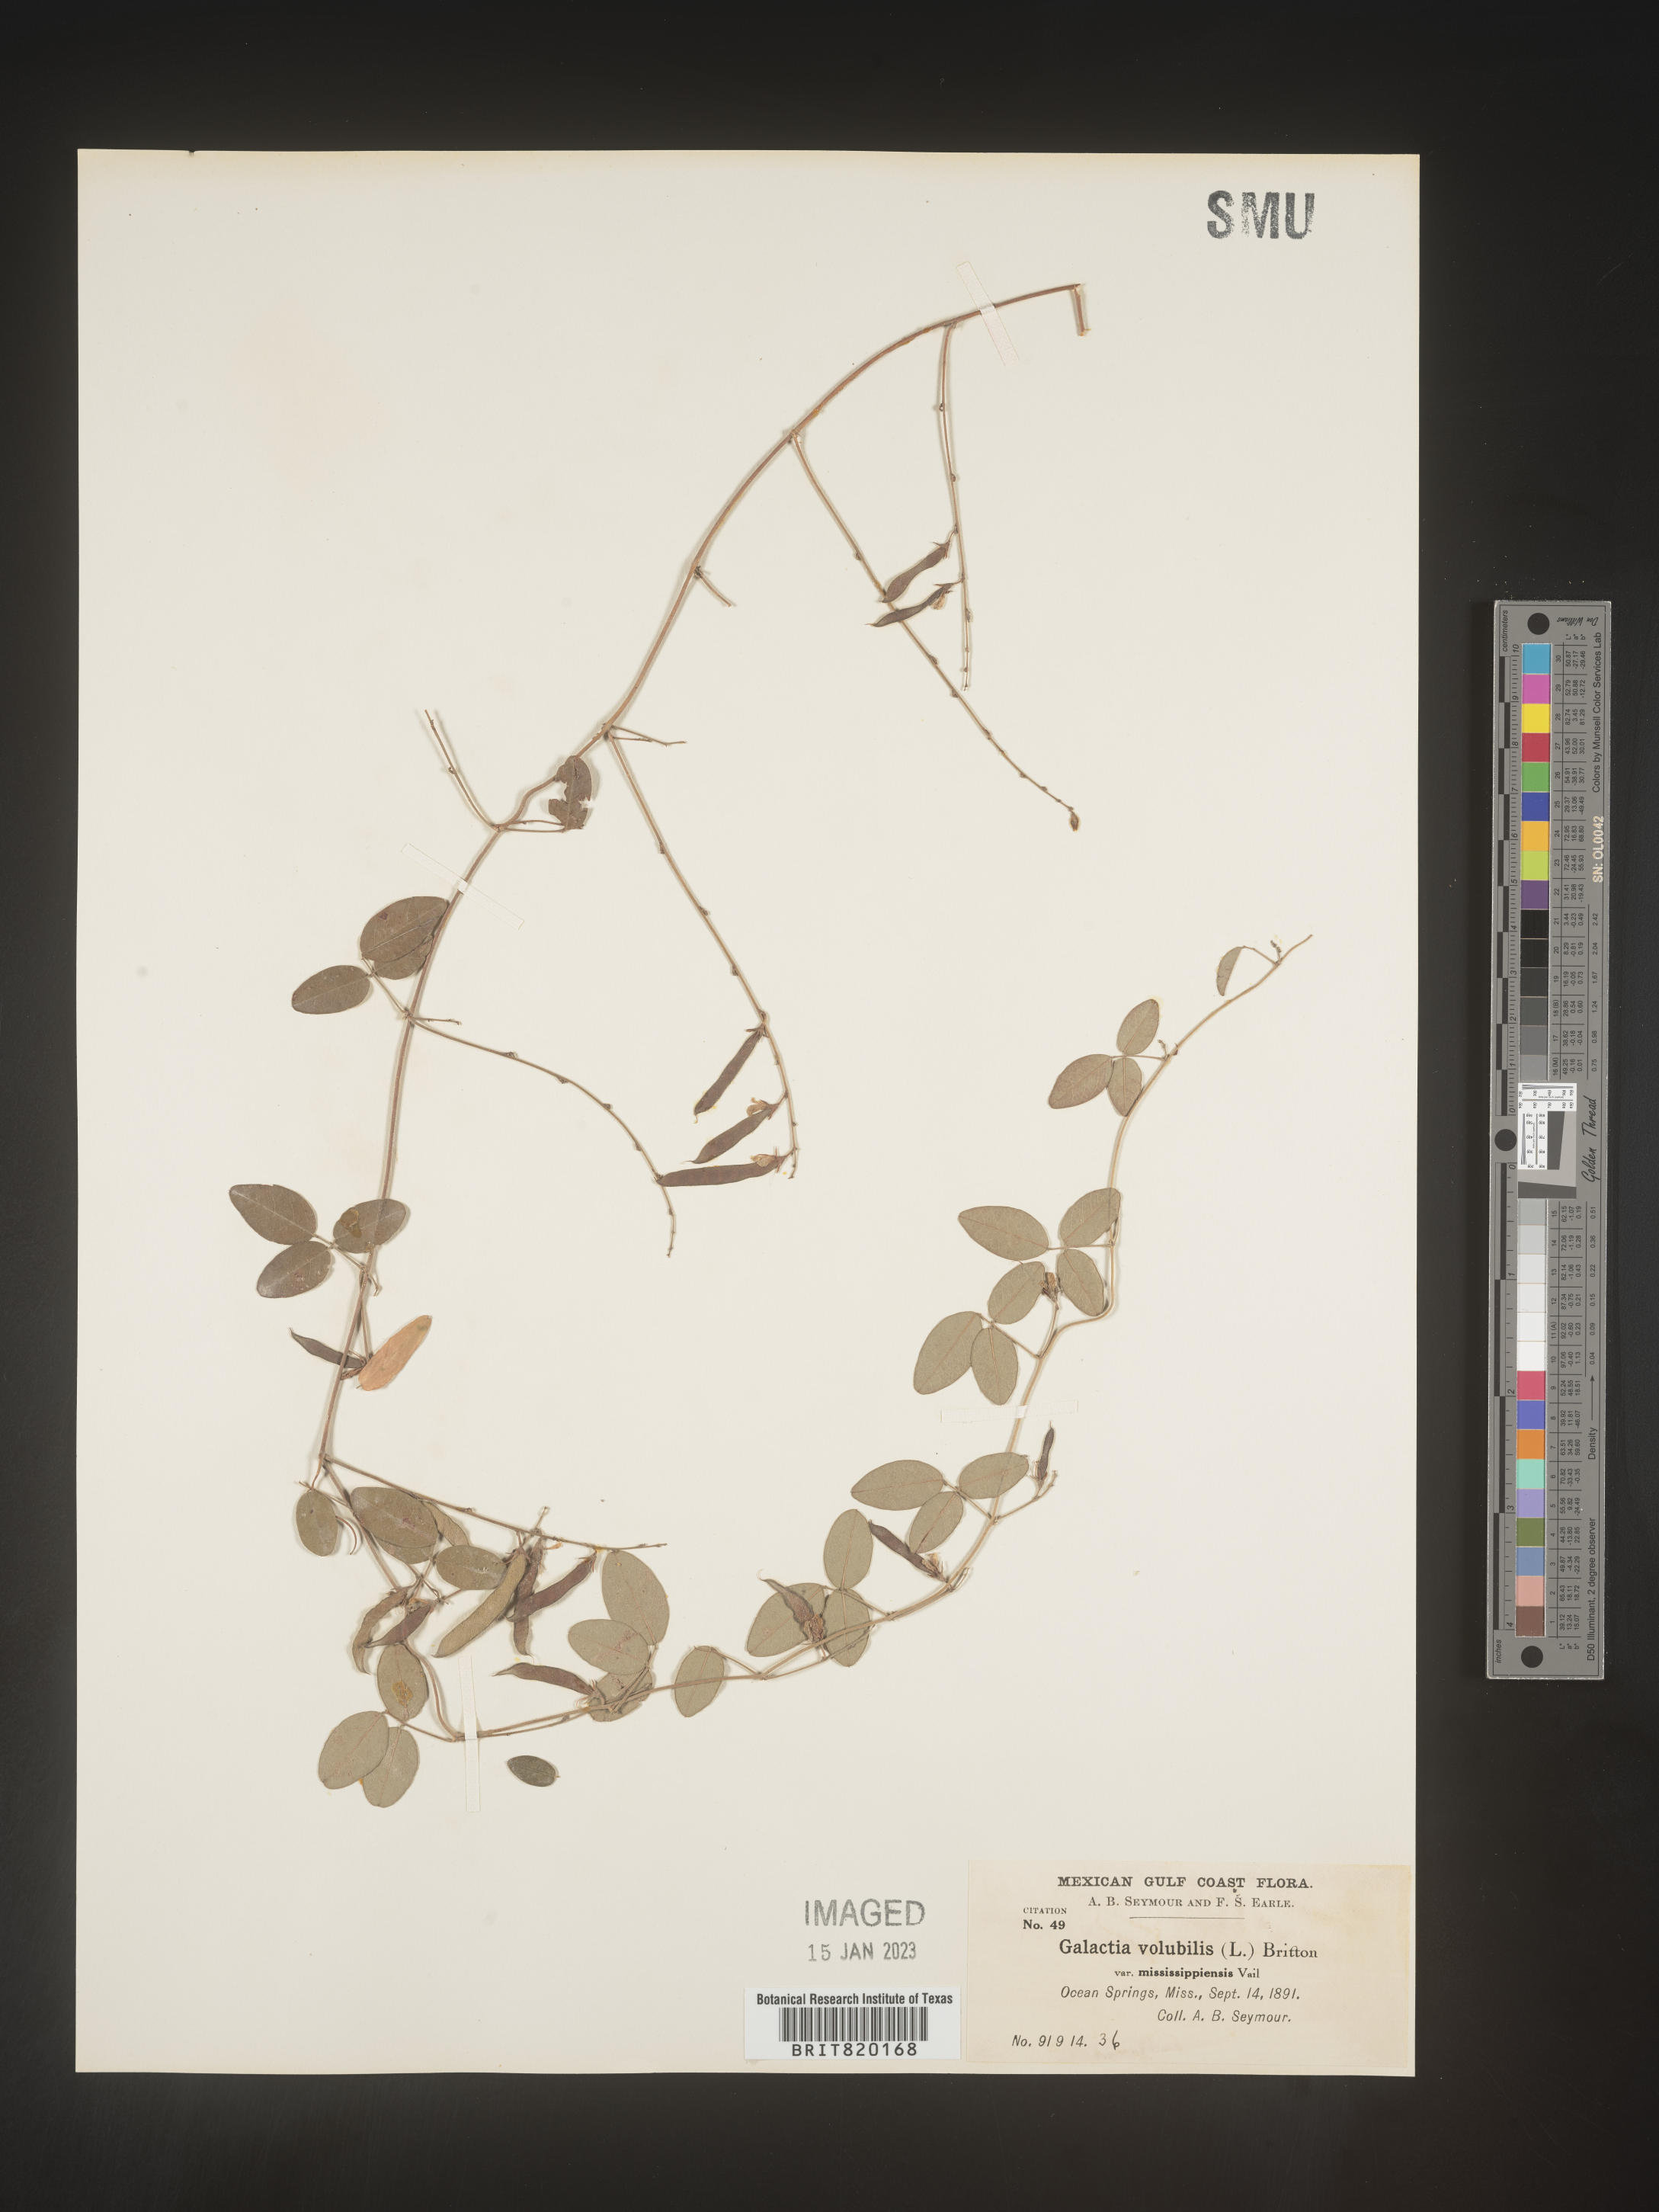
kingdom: Plantae
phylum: Tracheophyta
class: Magnoliopsida
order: Fabales
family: Fabaceae
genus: Galactia
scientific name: Galactia volubilis
